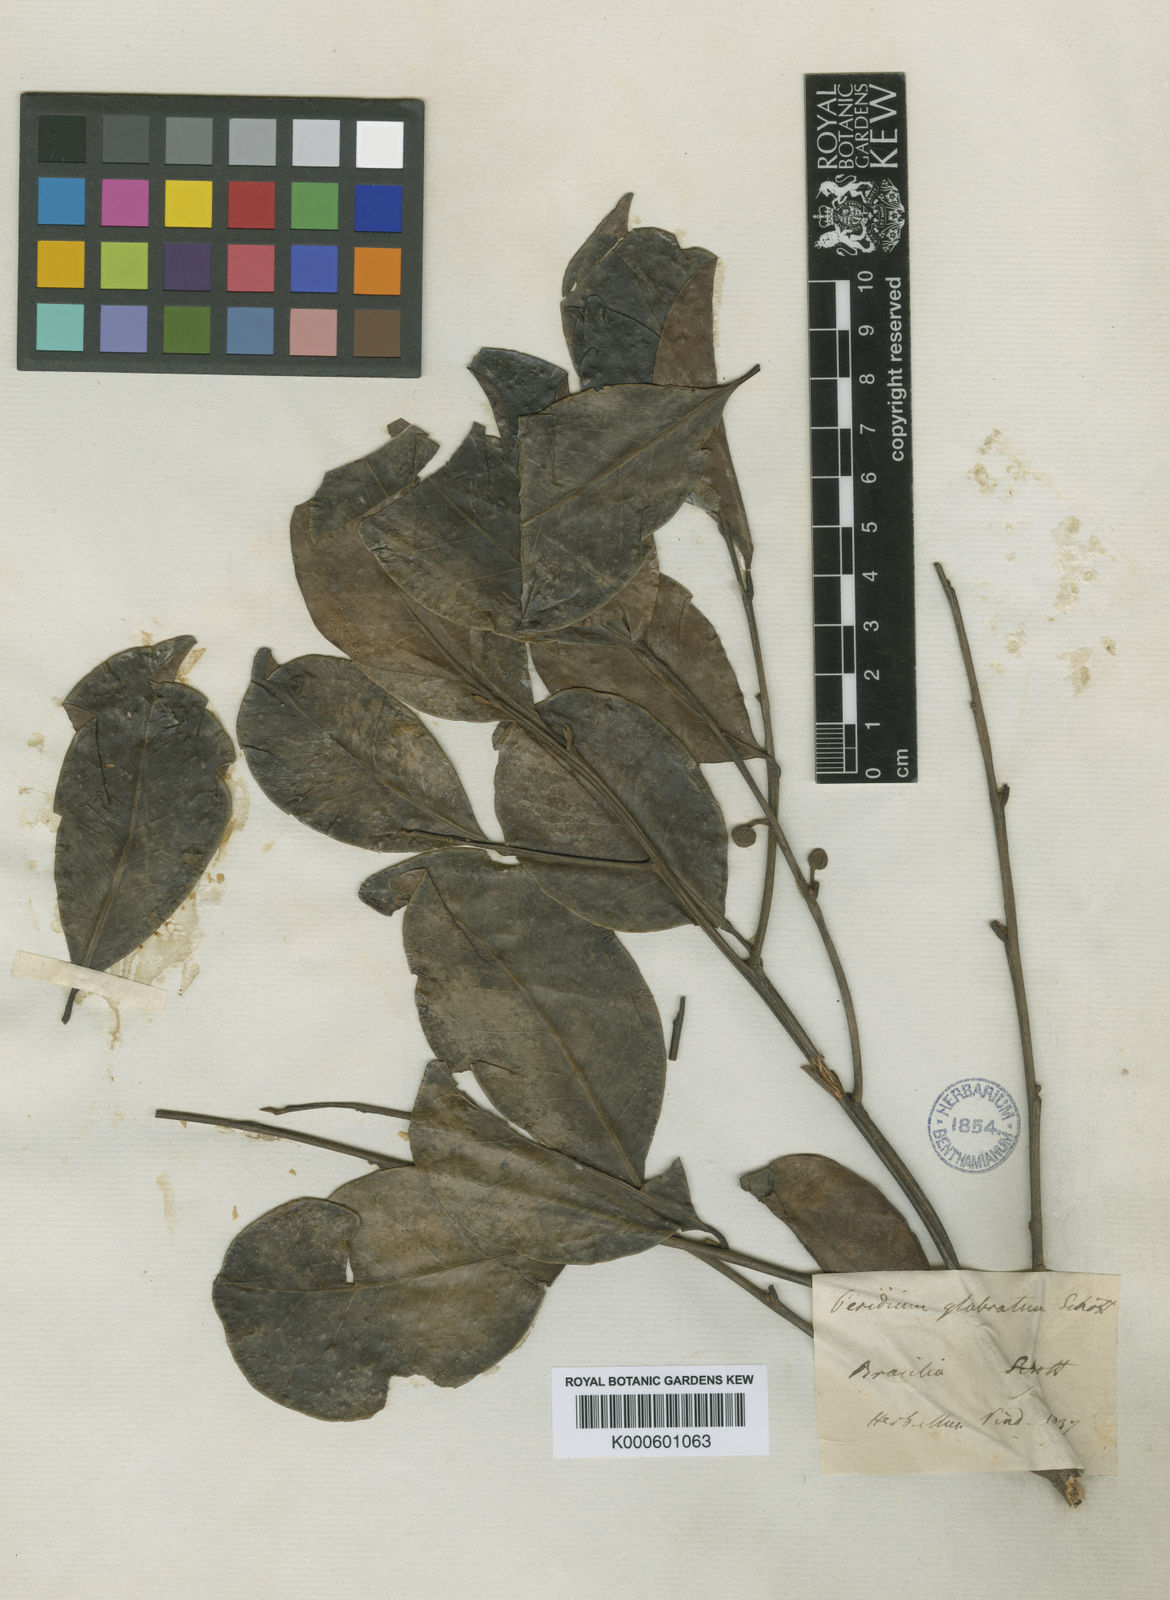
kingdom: Plantae
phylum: Tracheophyta
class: Magnoliopsida
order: Malpighiales
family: Peraceae
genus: Pera
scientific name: Pera glabrata
